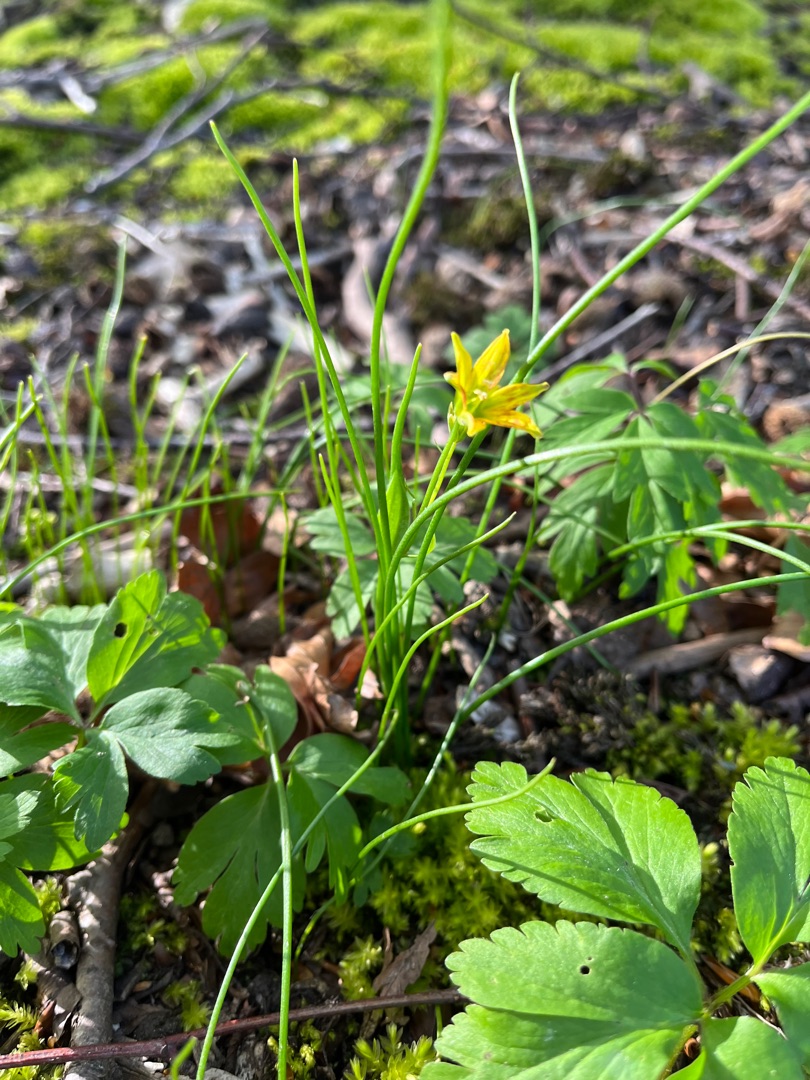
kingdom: Plantae
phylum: Tracheophyta
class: Liliopsida
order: Liliales
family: Liliaceae
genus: Gagea
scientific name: Gagea spathacea
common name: Hylster-guldstjerne
